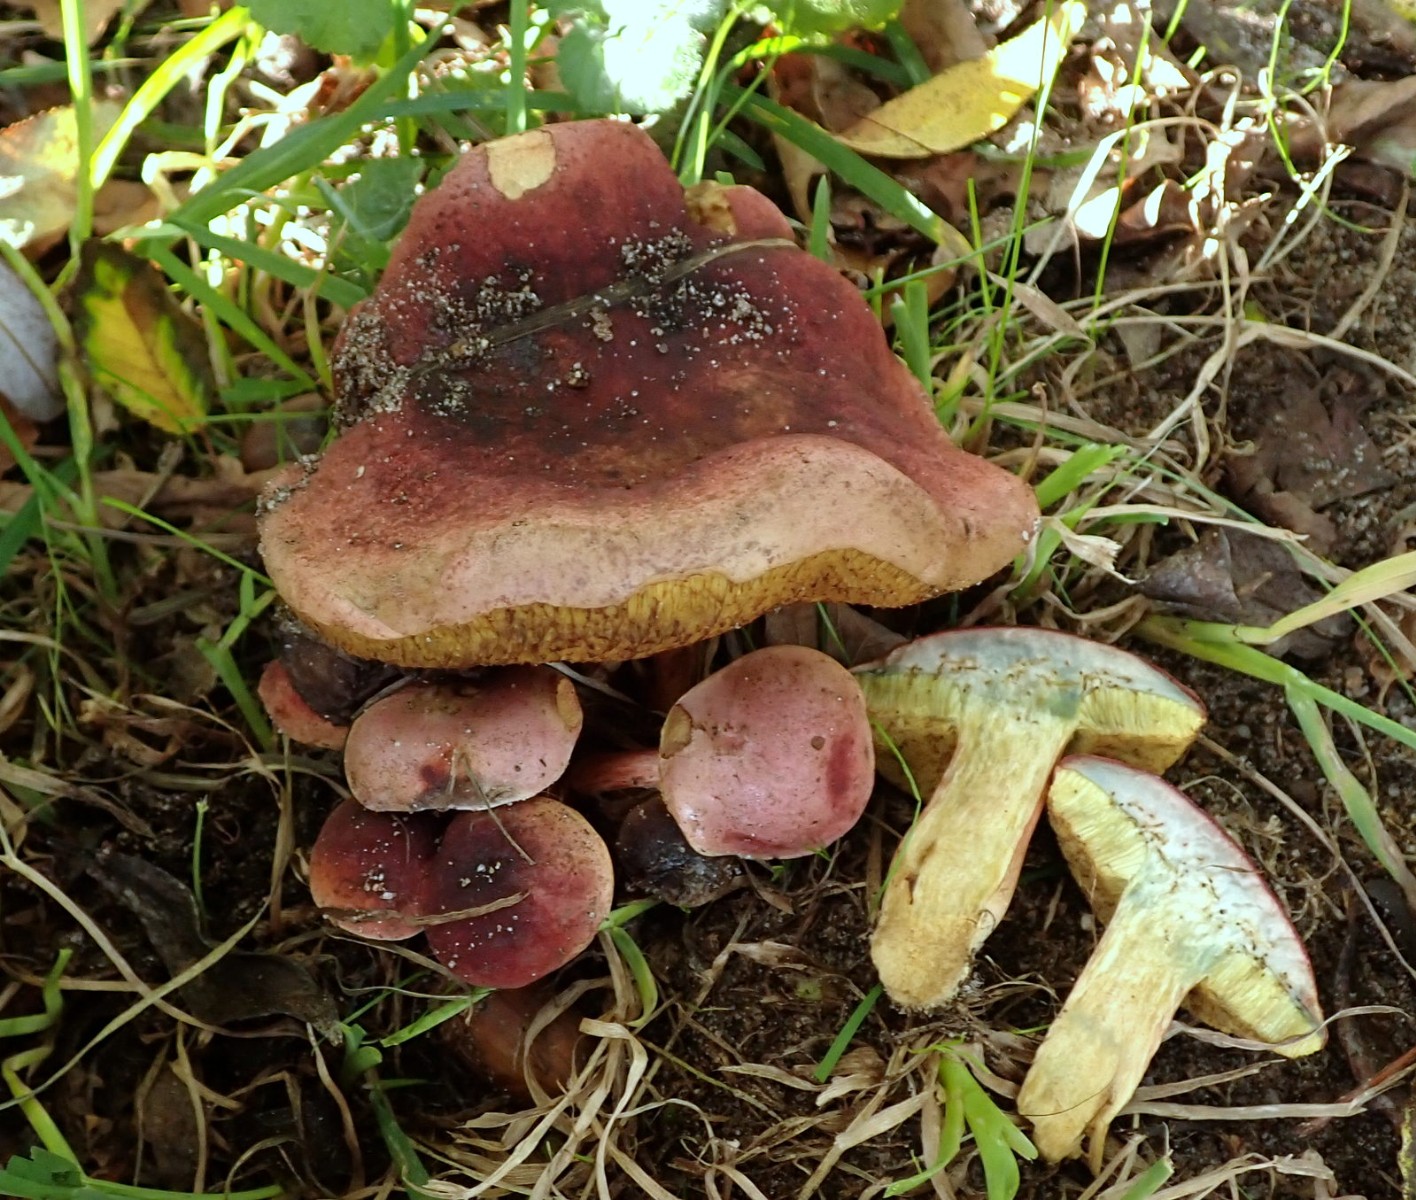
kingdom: Fungi
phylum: Basidiomycota
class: Agaricomycetes
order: Boletales
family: Boletaceae
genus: Hortiboletus
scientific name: Hortiboletus
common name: dværgrørhat
